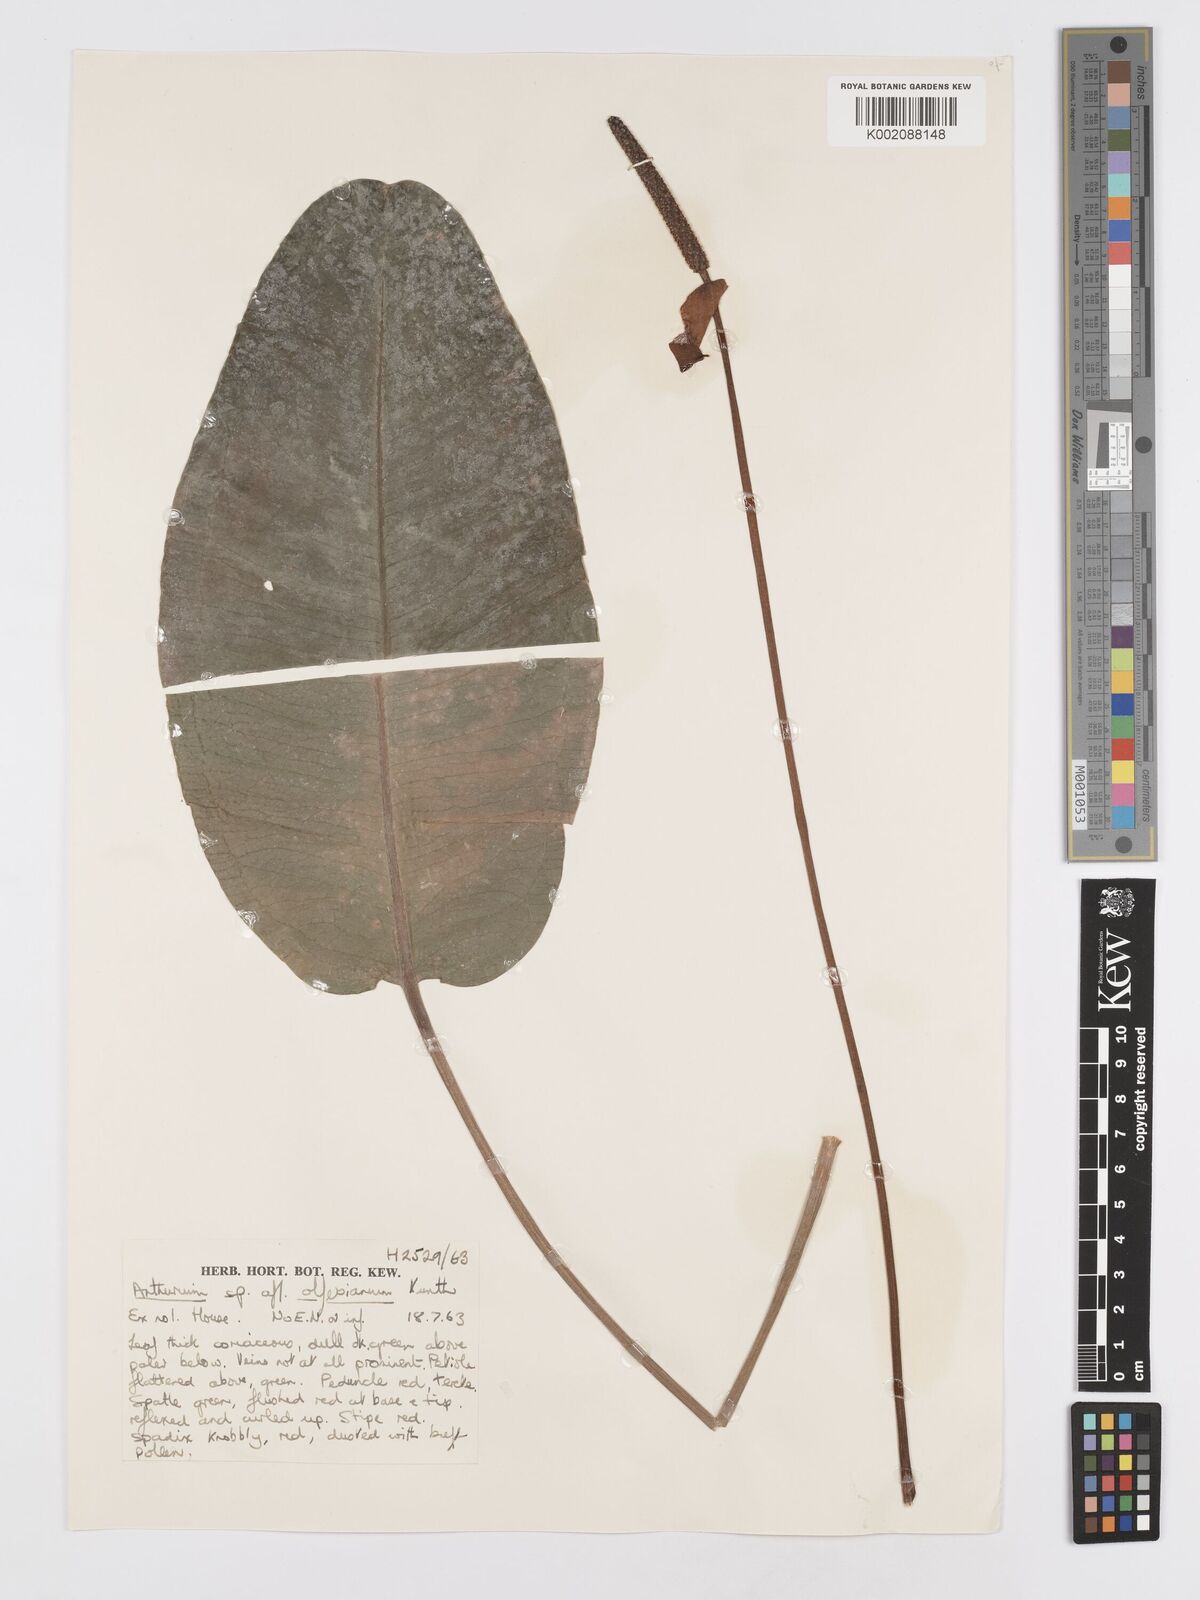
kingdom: Plantae
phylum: Tracheophyta
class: Liliopsida
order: Alismatales
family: Araceae
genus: Anthurium
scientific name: Anthurium
